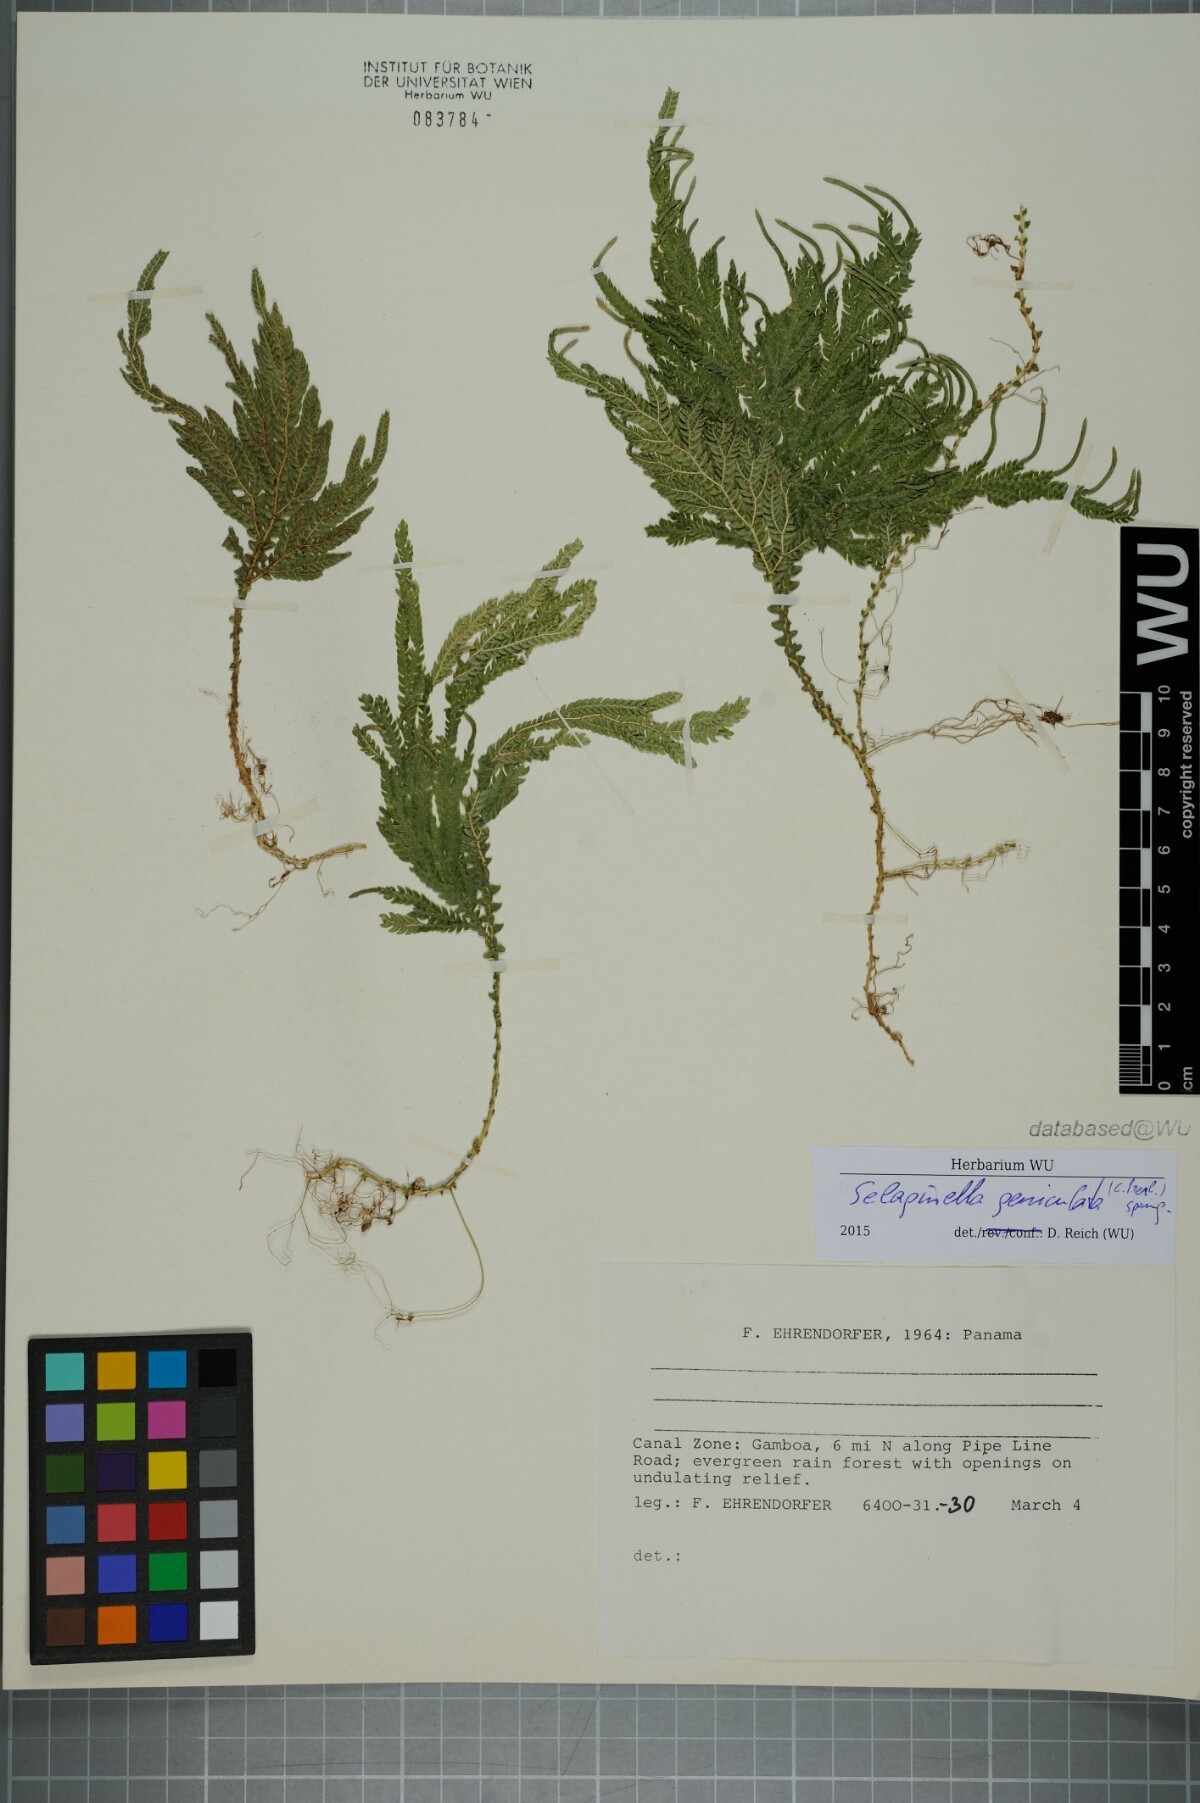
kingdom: Plantae
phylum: Tracheophyta
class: Lycopodiopsida
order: Selaginellales
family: Selaginellaceae
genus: Selaginella
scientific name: Selaginella geniculata
